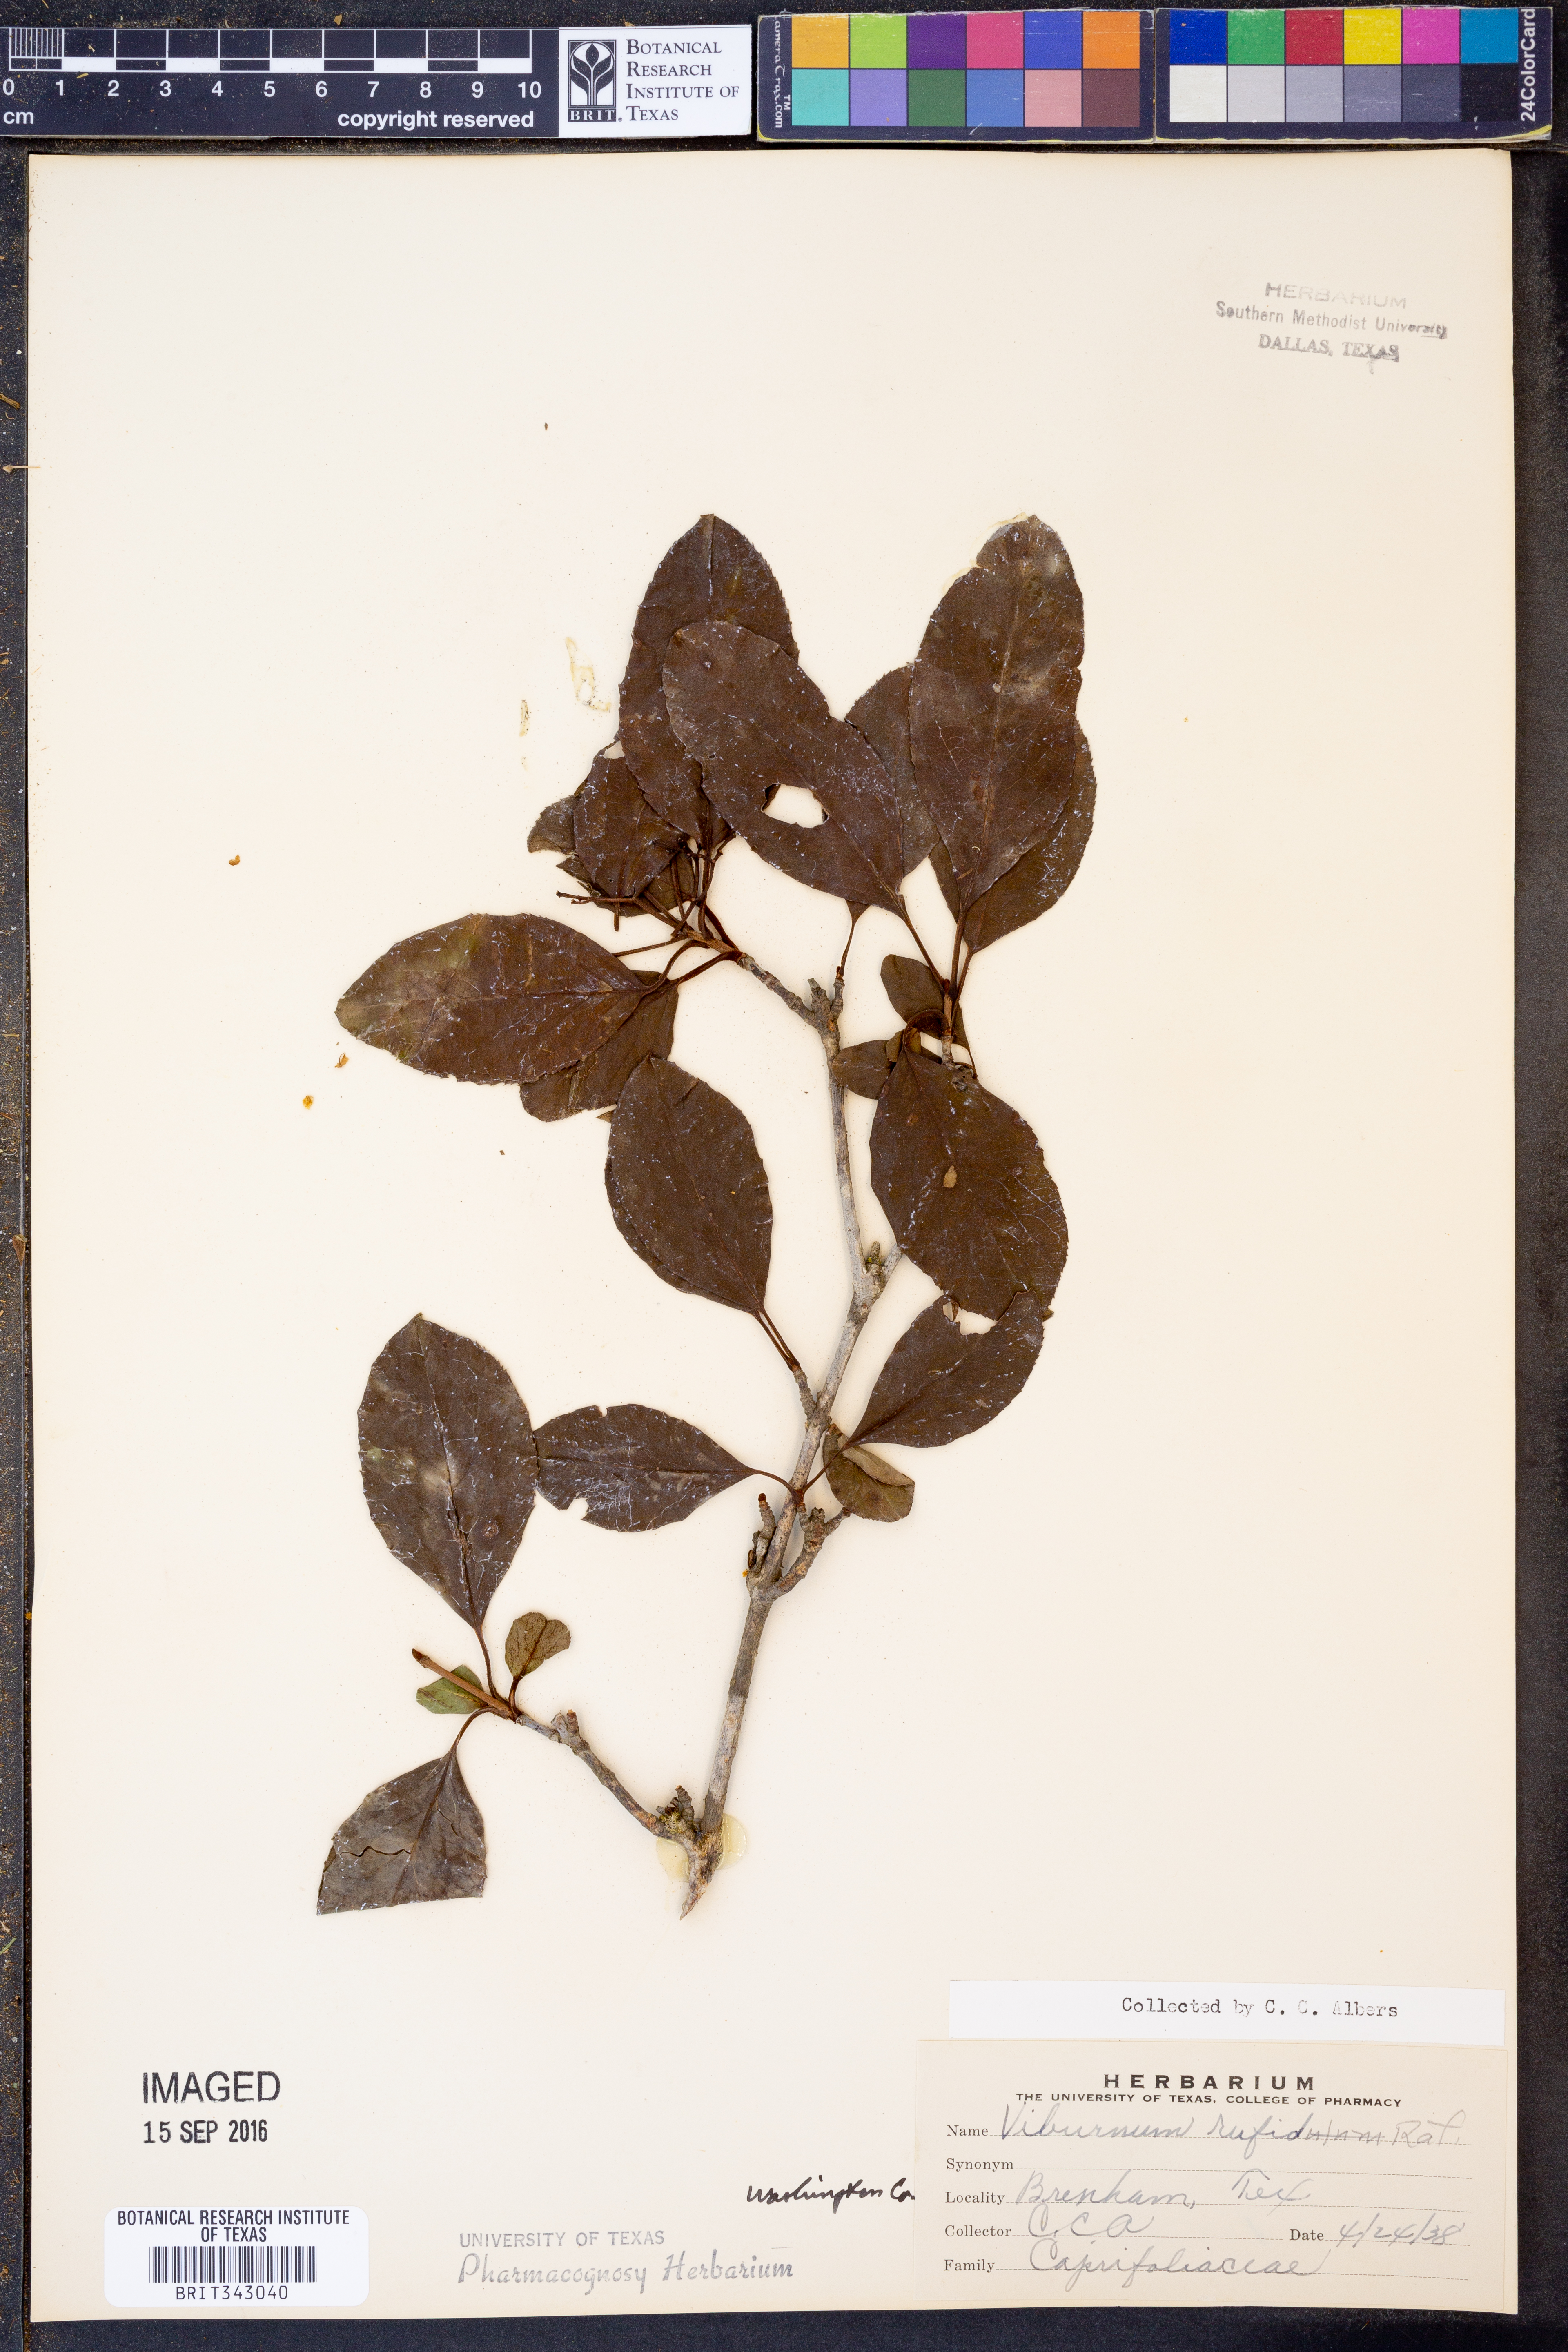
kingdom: Plantae
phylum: Tracheophyta
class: Magnoliopsida
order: Dipsacales
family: Viburnaceae
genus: Viburnum
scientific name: Viburnum rufidulum
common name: Blue haw
